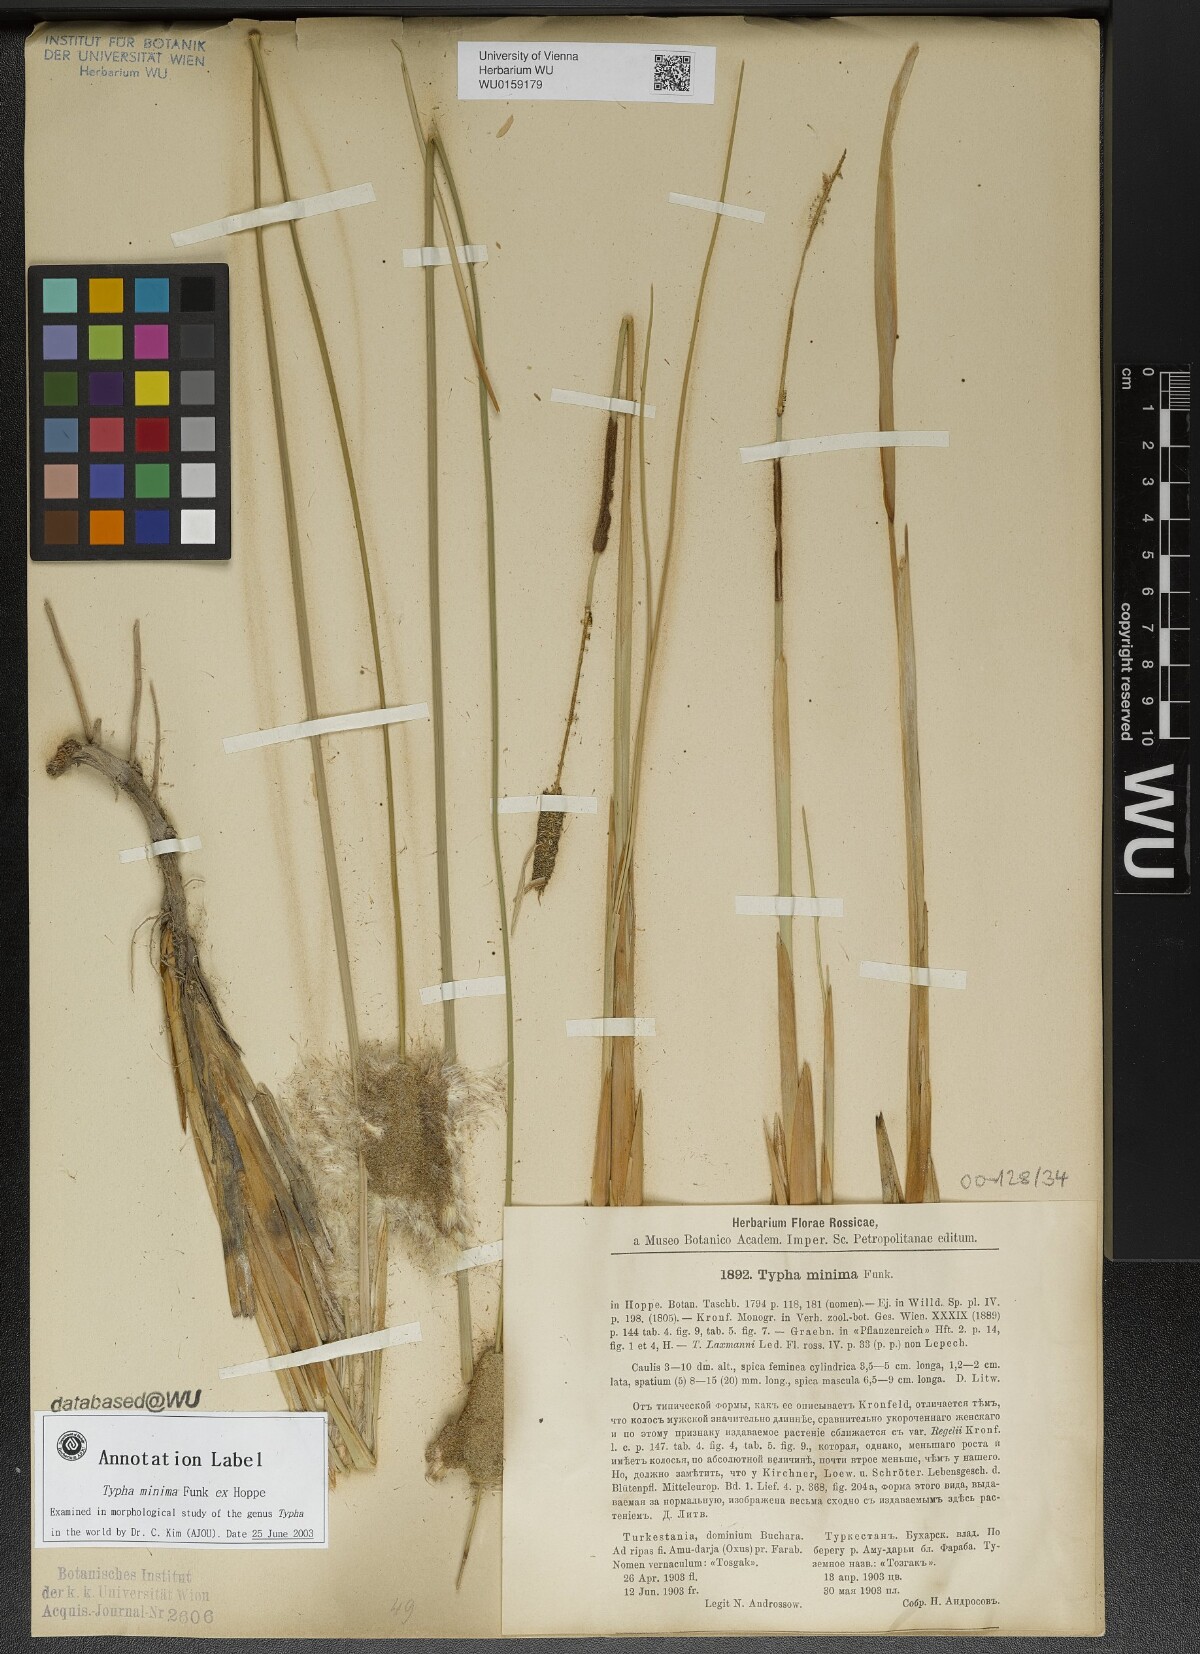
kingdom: Plantae
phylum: Tracheophyta
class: Liliopsida
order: Poales
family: Typhaceae
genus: Typha
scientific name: Typha minima
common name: Dwarf bulrush
